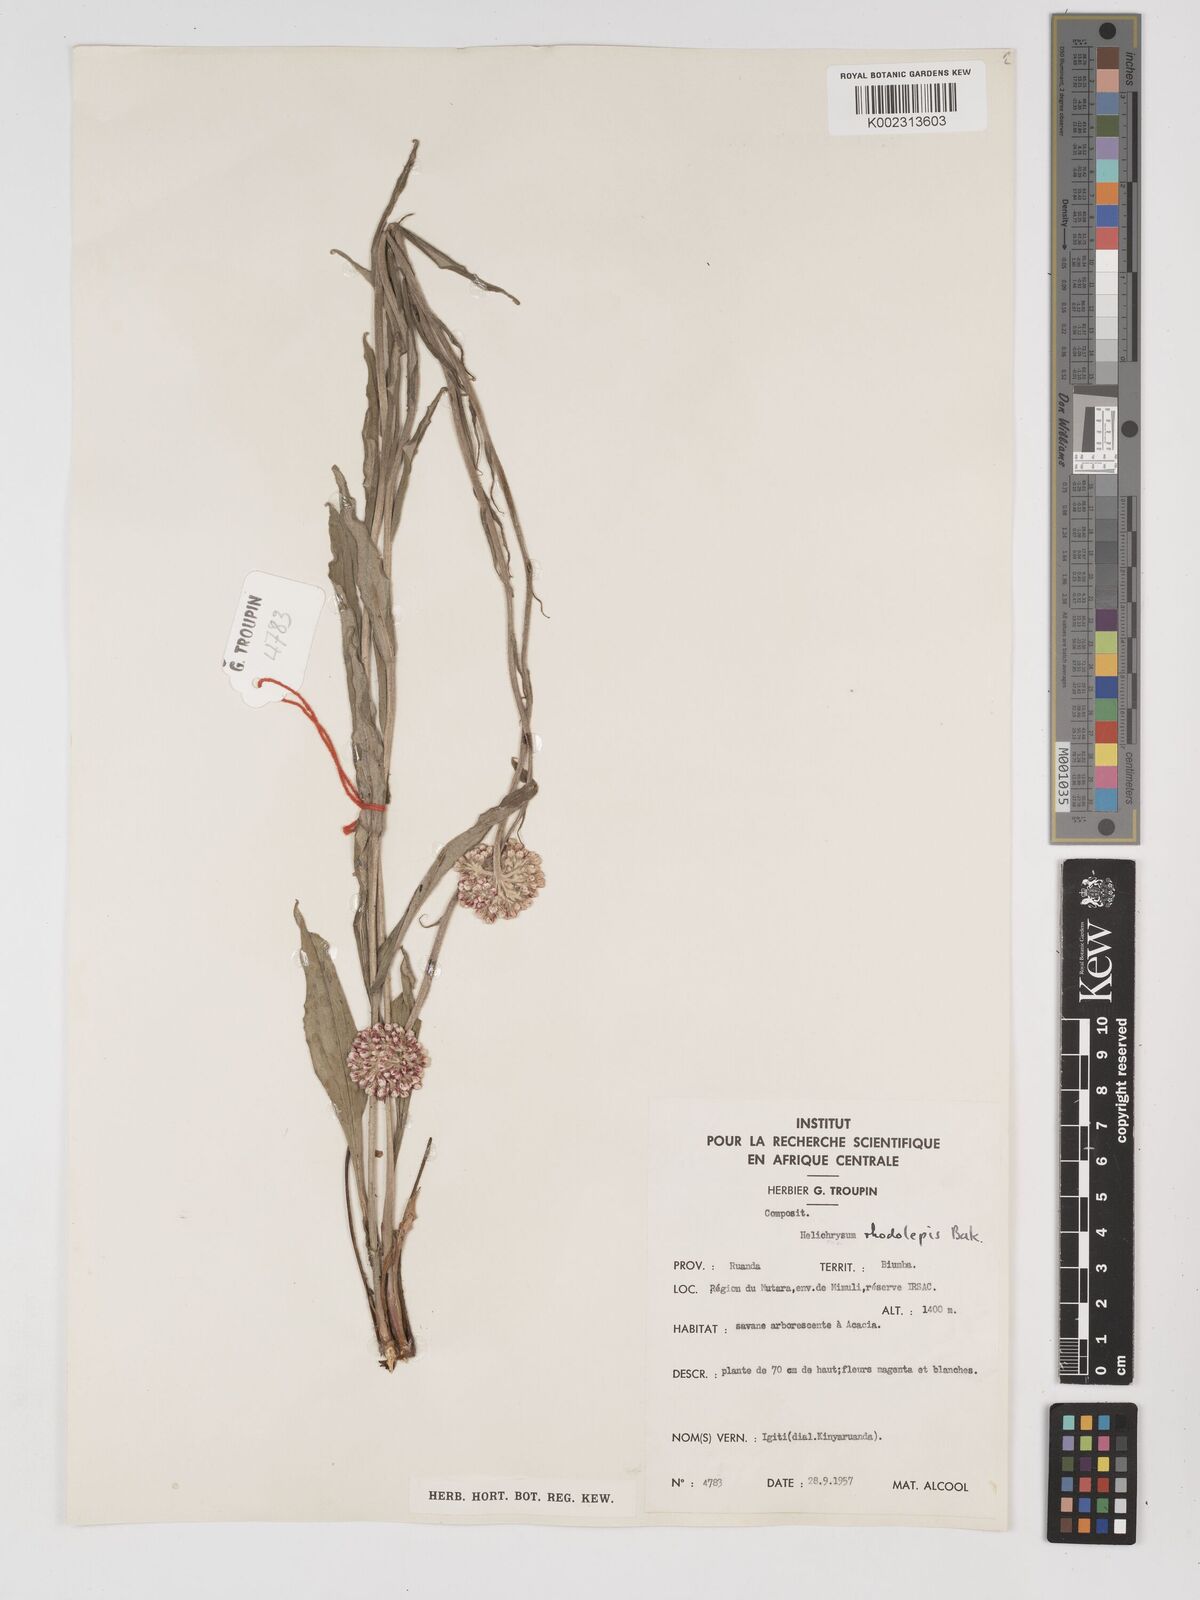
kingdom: Plantae
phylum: Tracheophyta
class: Magnoliopsida
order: Asterales
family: Asteraceae
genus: Helichrysum
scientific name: Helichrysum nudifolium
